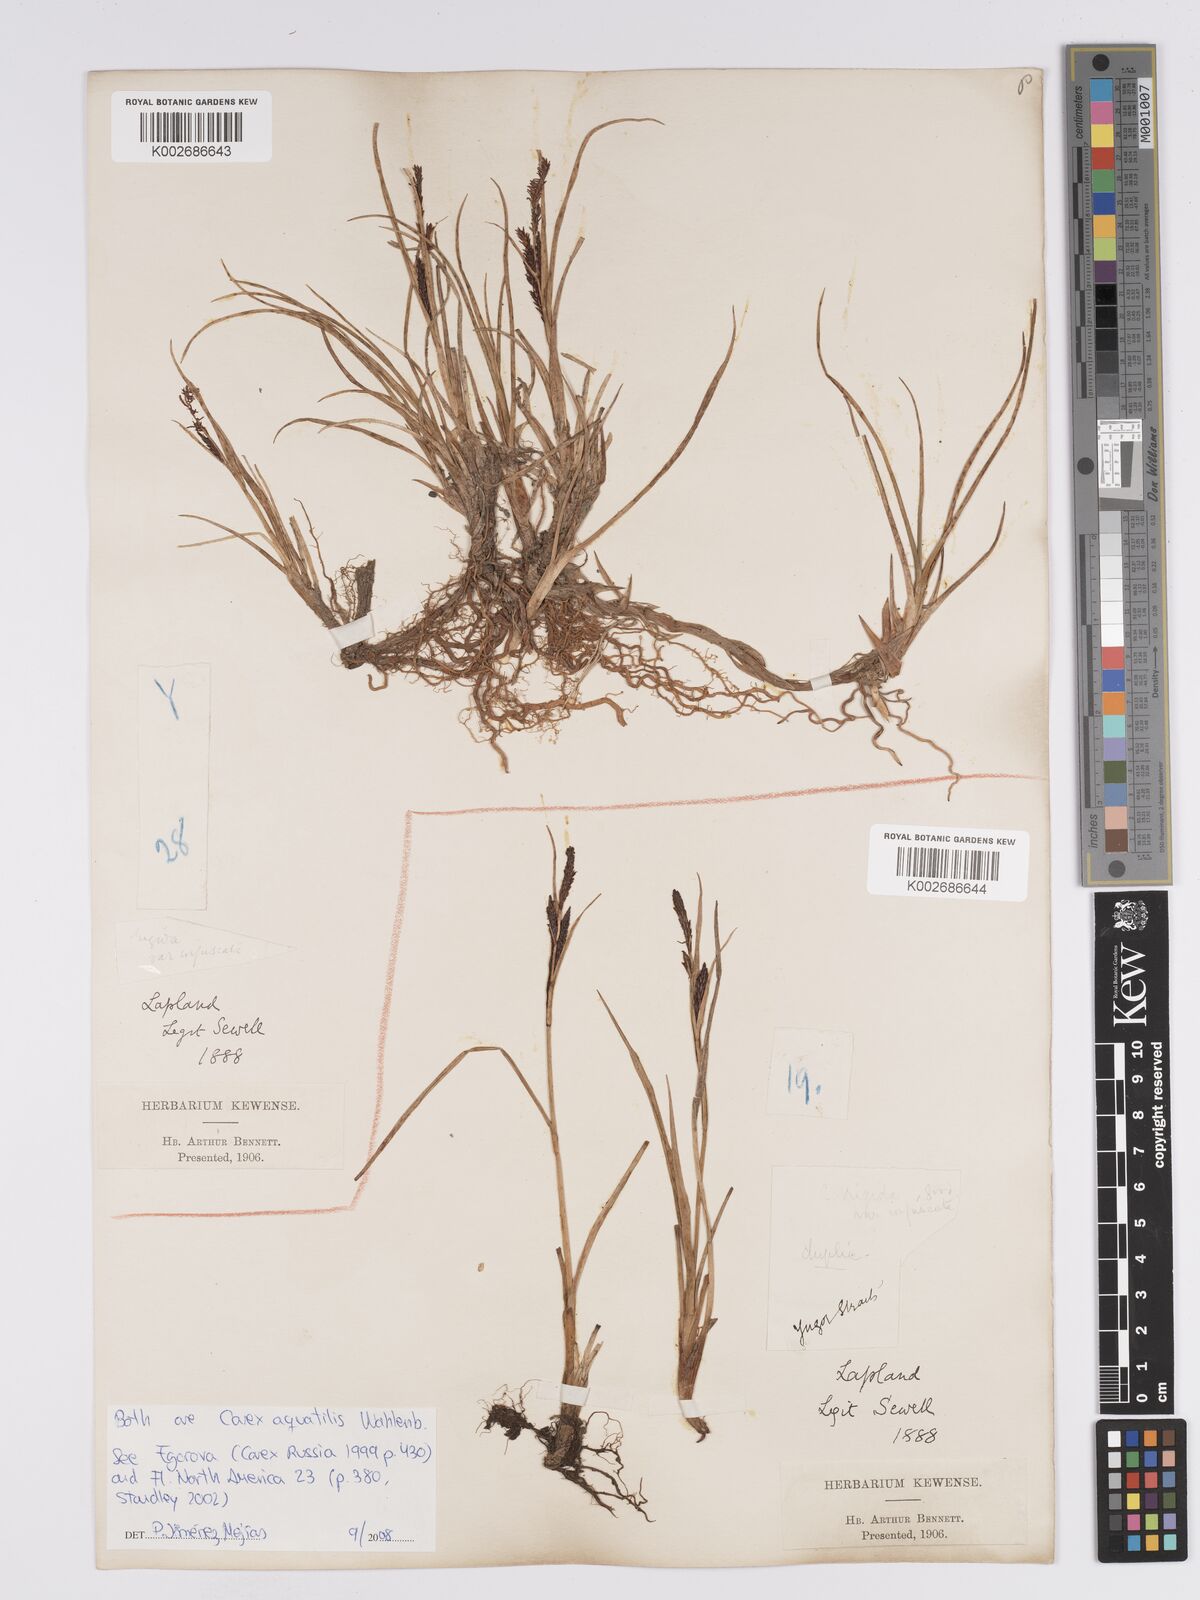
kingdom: Plantae
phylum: Tracheophyta
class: Liliopsida
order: Poales
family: Cyperaceae
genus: Carex
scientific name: Carex aquatilis
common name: Water sedge
